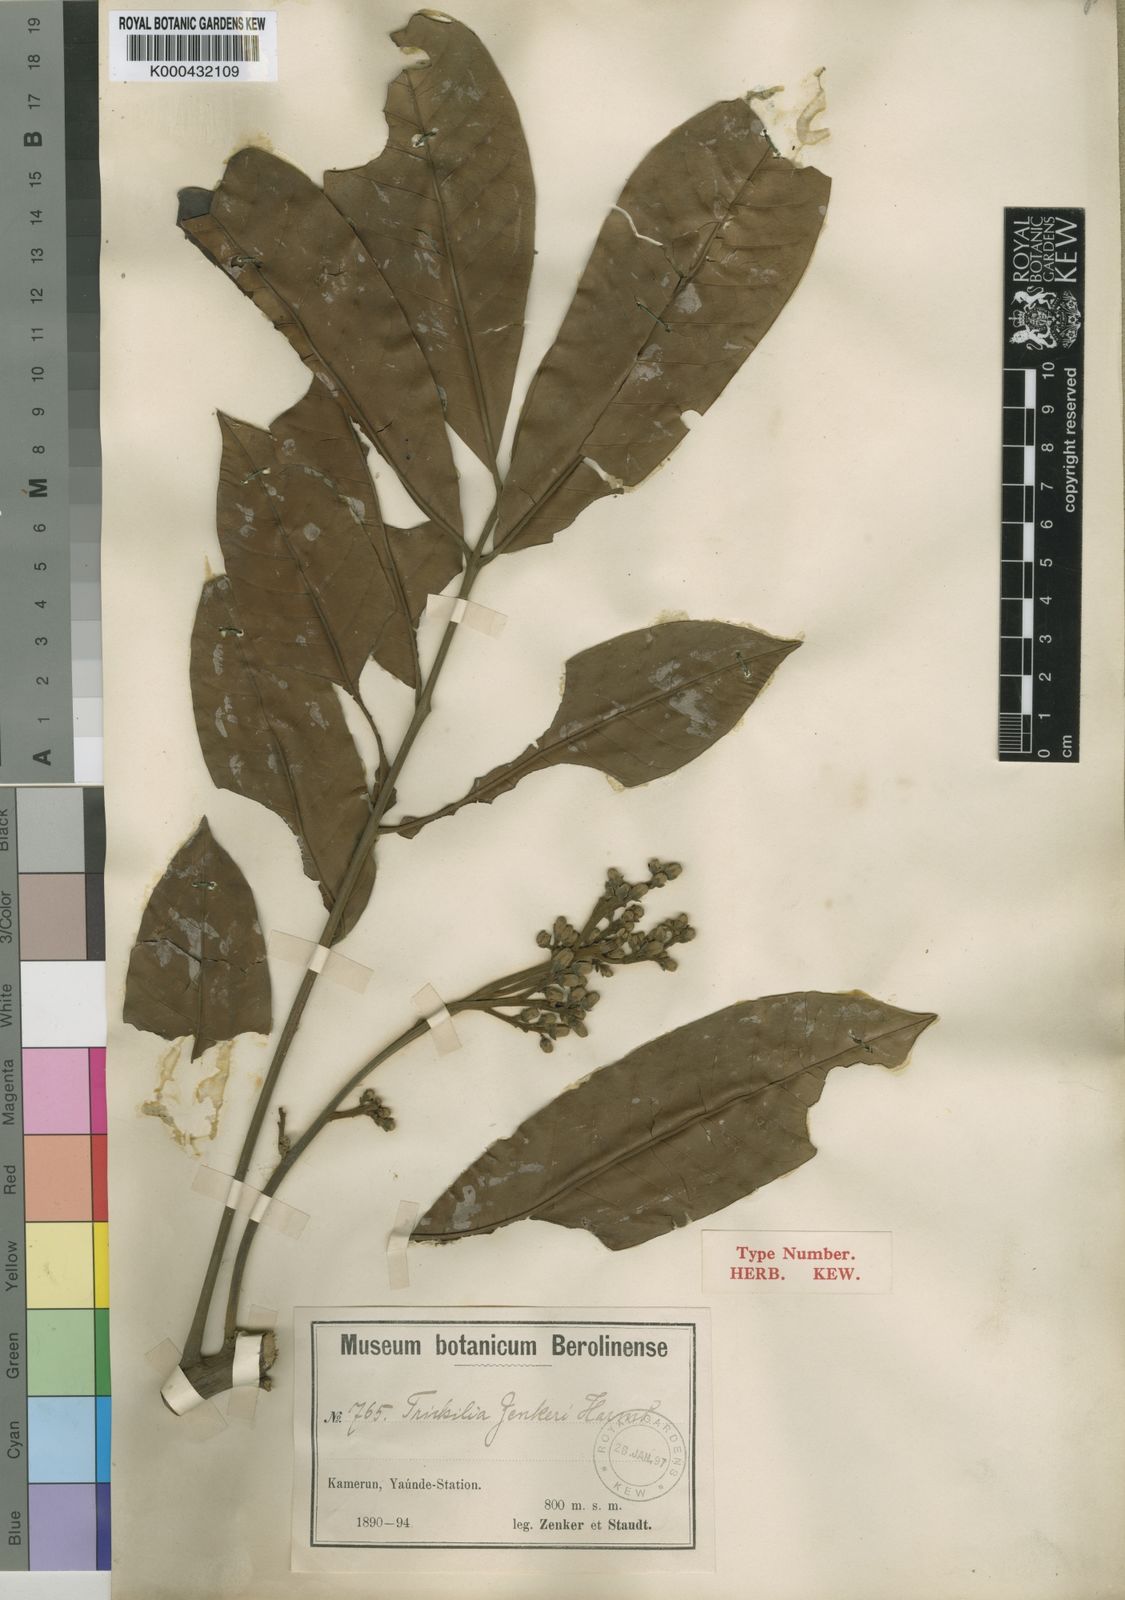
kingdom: Plantae
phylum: Tracheophyta
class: Magnoliopsida
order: Sapindales
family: Meliaceae
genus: Trichilia
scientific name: Trichilia monadelpha
